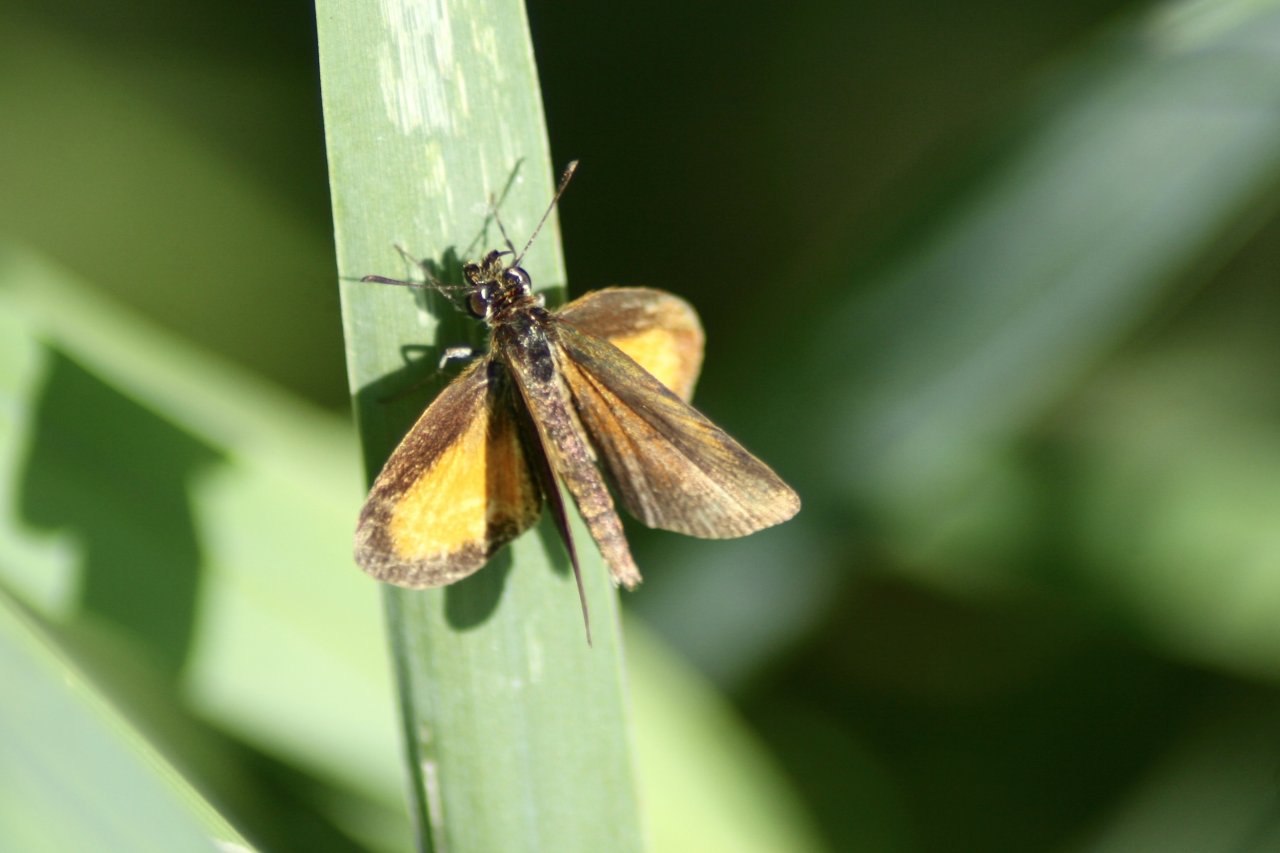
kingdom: Animalia
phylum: Arthropoda
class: Insecta
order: Lepidoptera
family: Hesperiidae
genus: Ancyloxypha
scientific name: Ancyloxypha numitor
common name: Least Skipper
